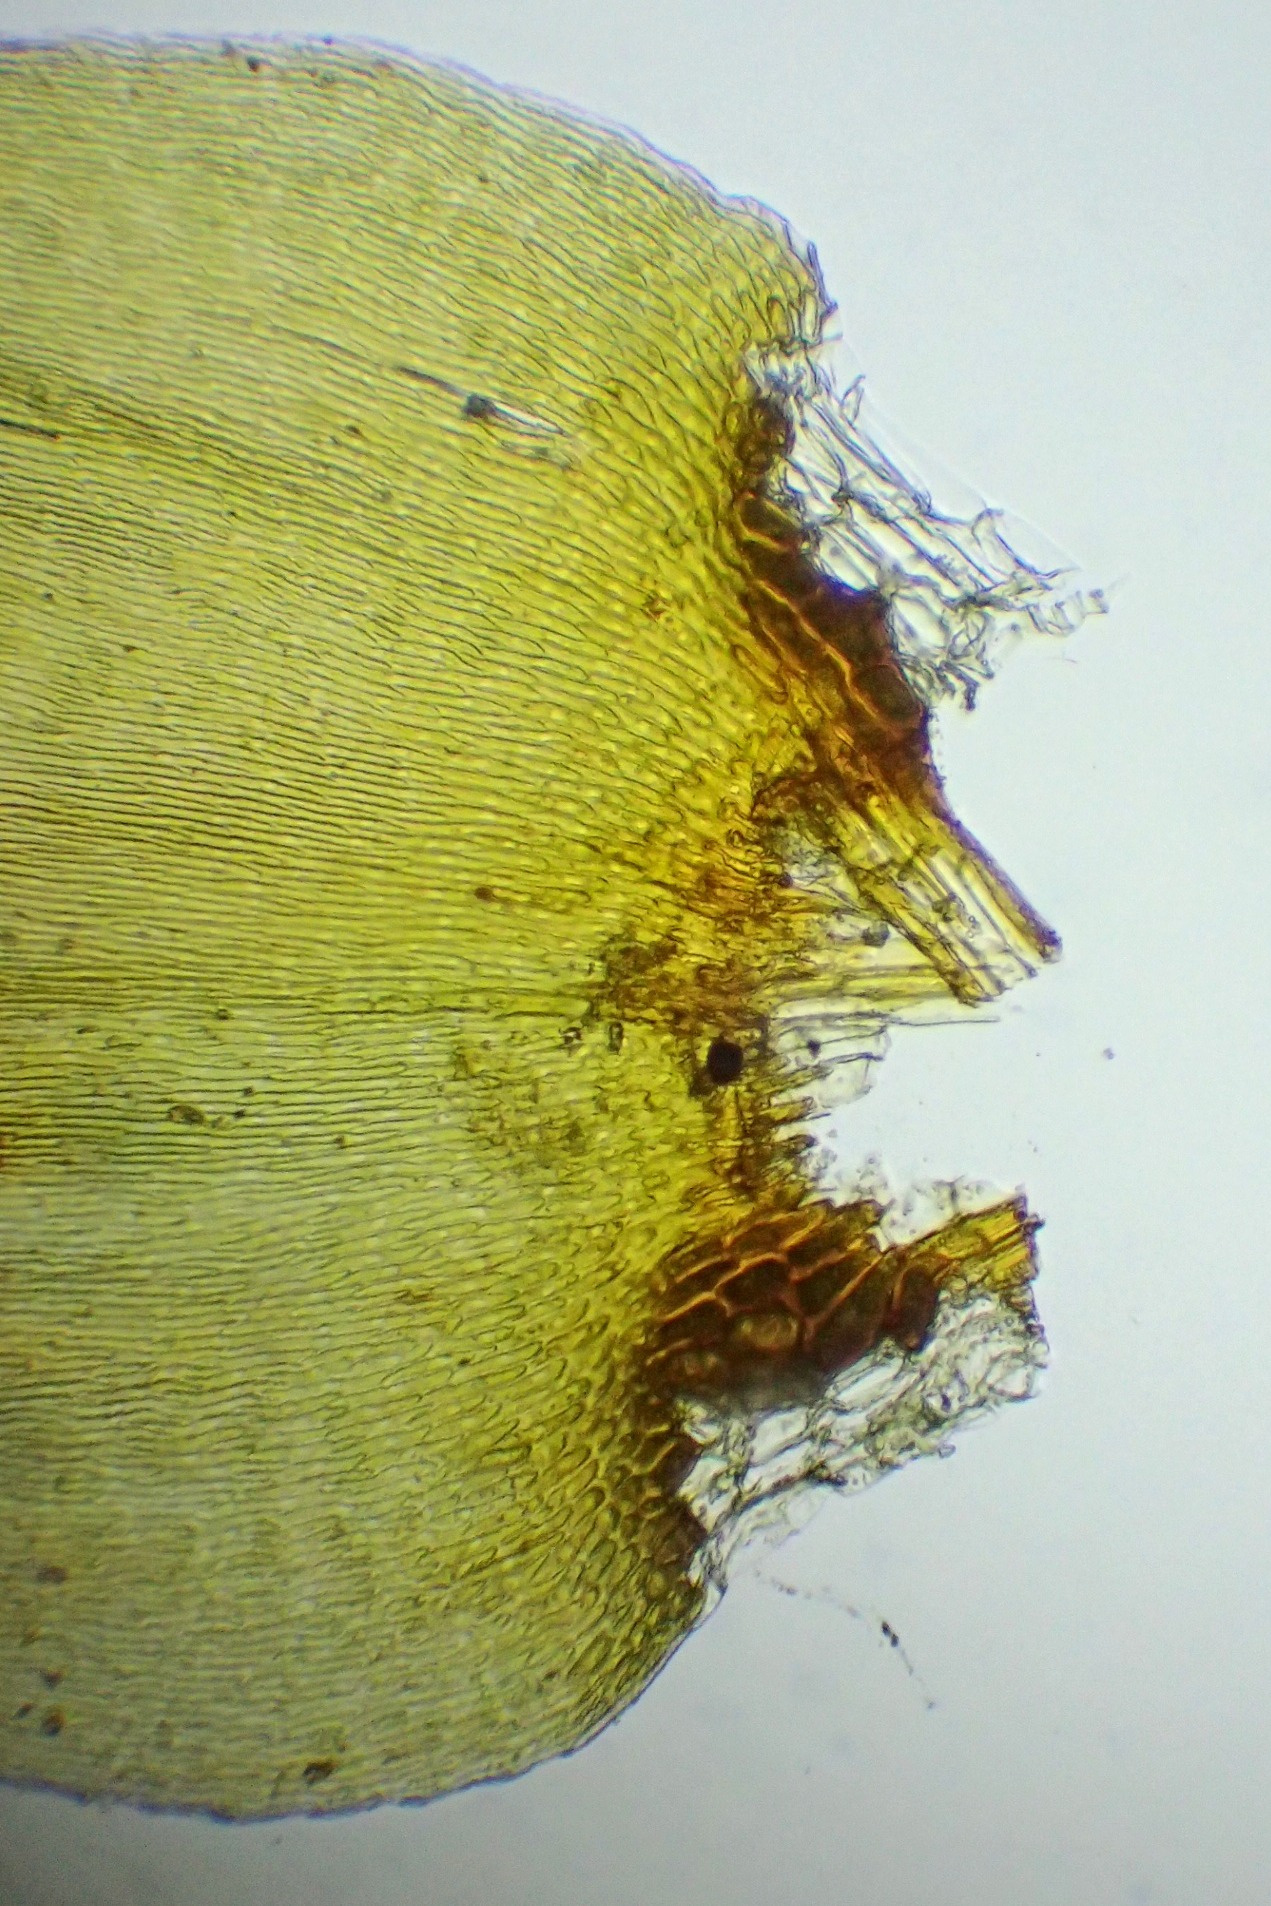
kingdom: Plantae
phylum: Bryophyta
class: Bryopsida
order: Hypnales
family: Pylaisiaceae
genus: Calliergonella
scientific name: Calliergonella cuspidata
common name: Spids spydmos
